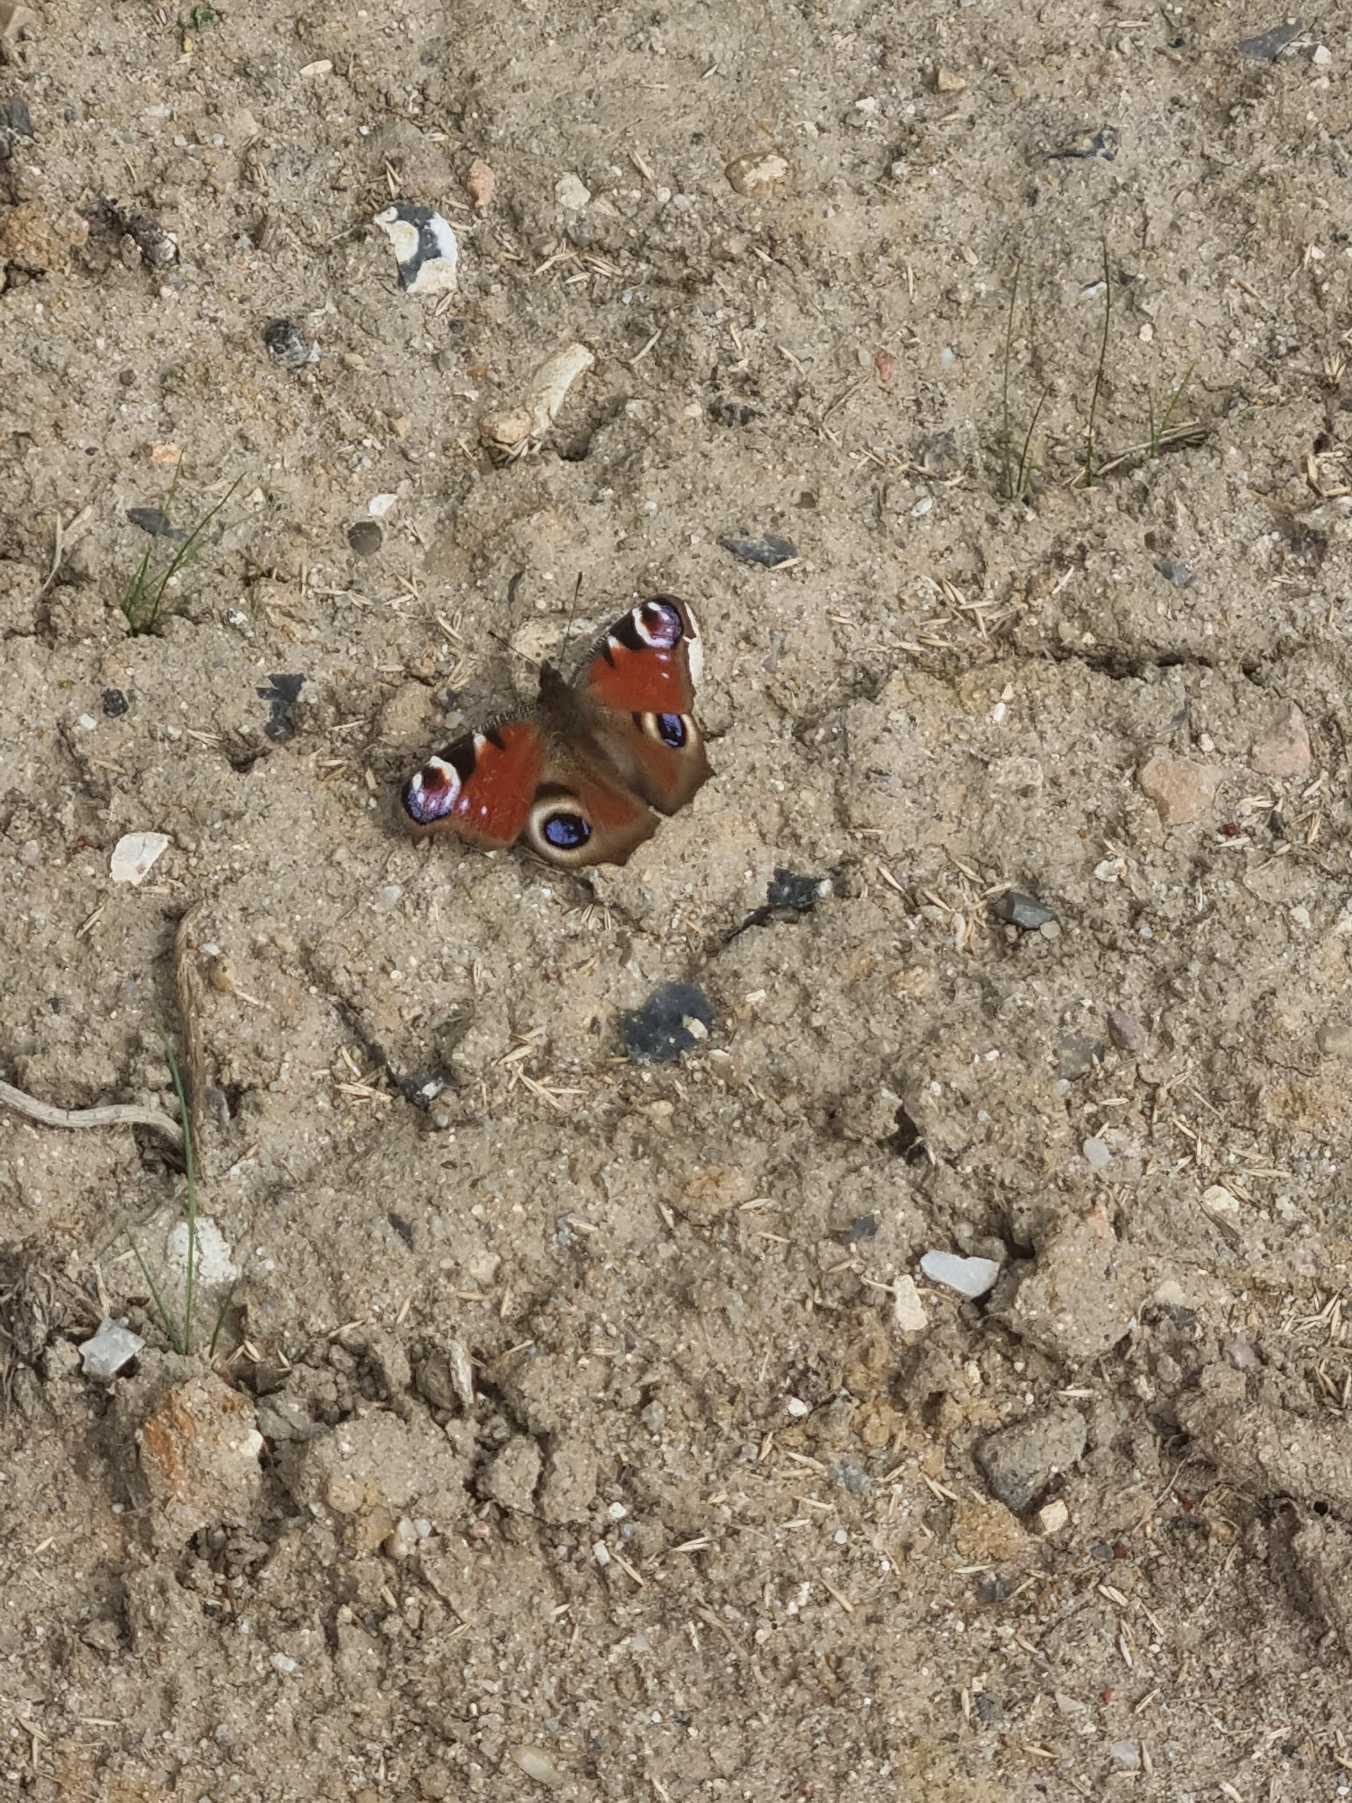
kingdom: Animalia
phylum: Arthropoda
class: Insecta
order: Lepidoptera
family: Nymphalidae
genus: Aglais
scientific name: Aglais io
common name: Dagpåfugleøje
